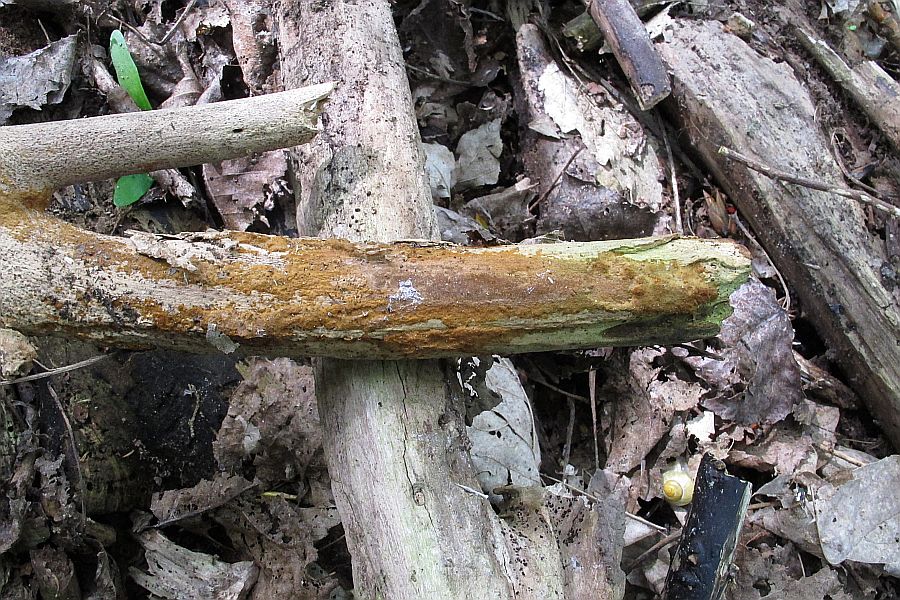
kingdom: Fungi
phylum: Basidiomycota
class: Agaricomycetes
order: Hymenochaetales
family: Hymenochaetaceae
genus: Fuscoporia
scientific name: Fuscoporia ferruginosa
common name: rustbrun ildporesvamp
